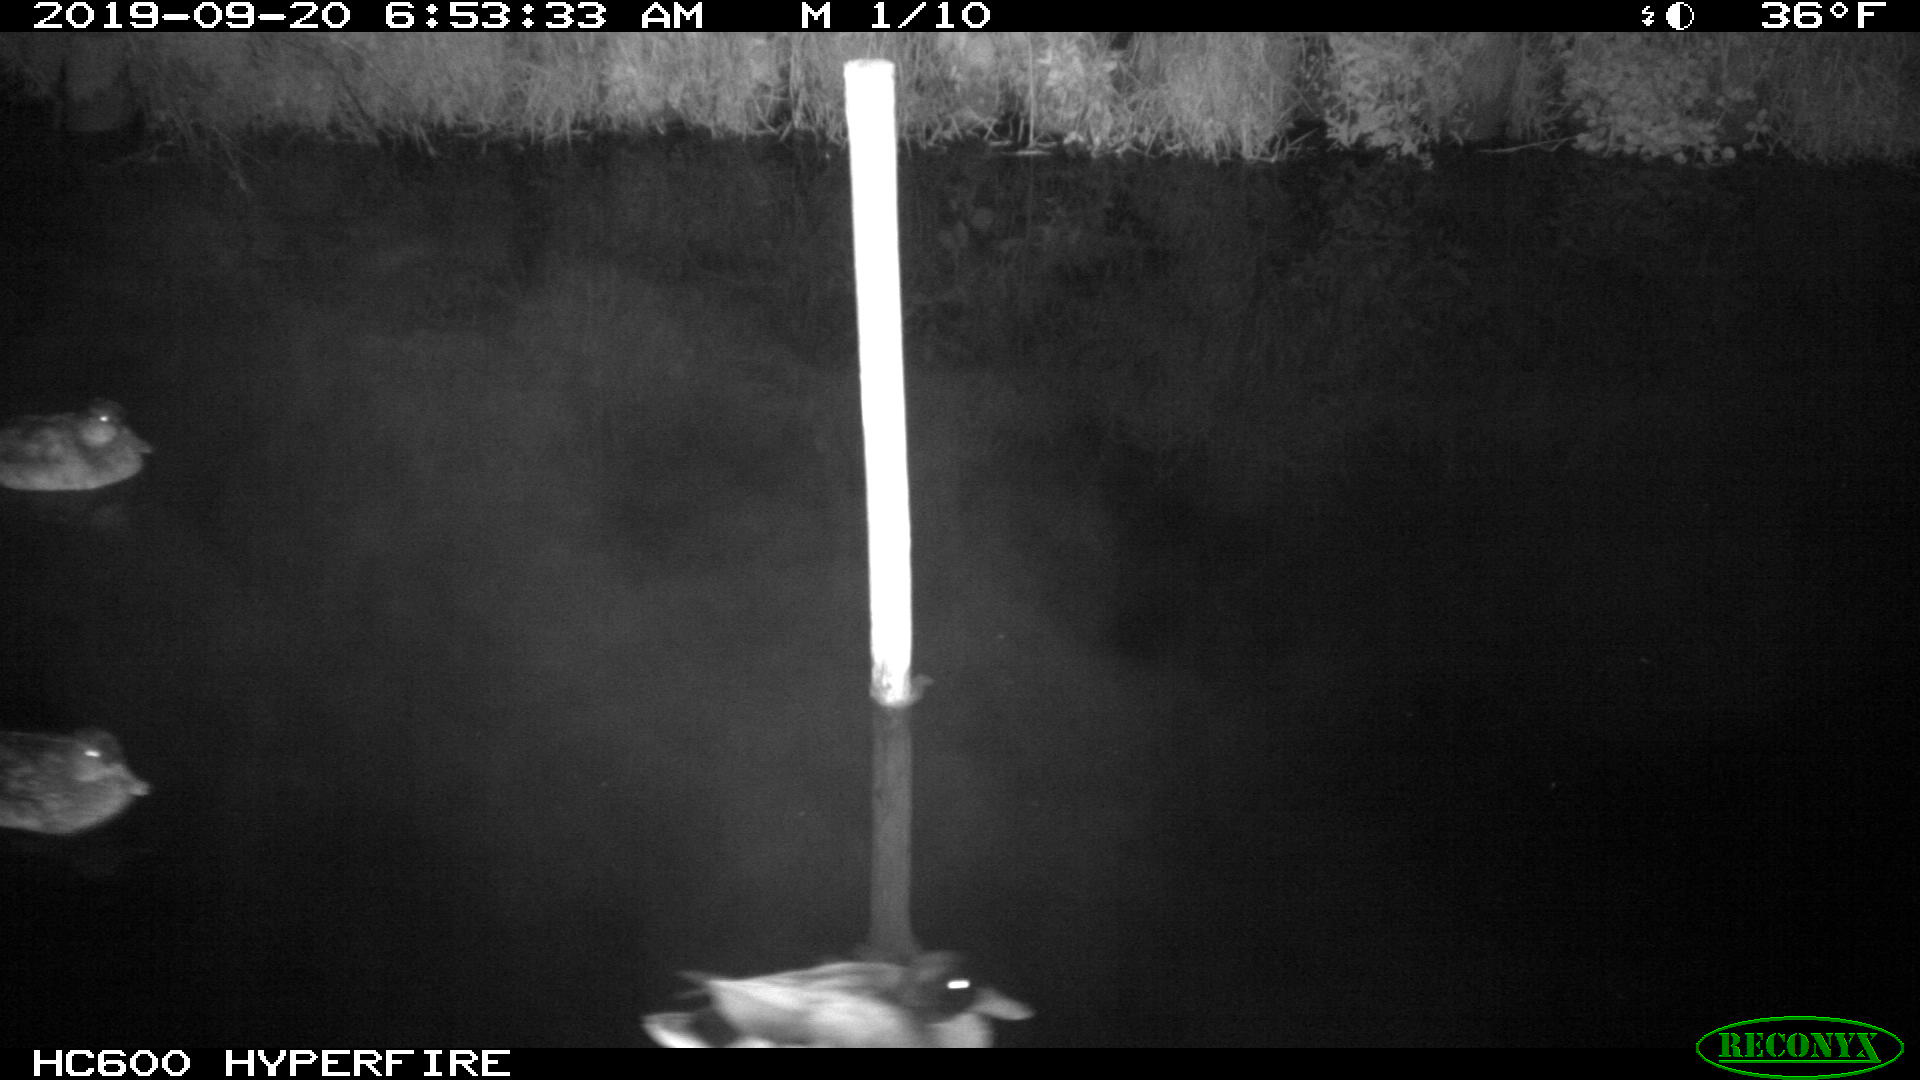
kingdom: Animalia
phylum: Chordata
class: Aves
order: Anseriformes
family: Anatidae
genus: Anas
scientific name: Anas platyrhynchos
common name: Mallard
